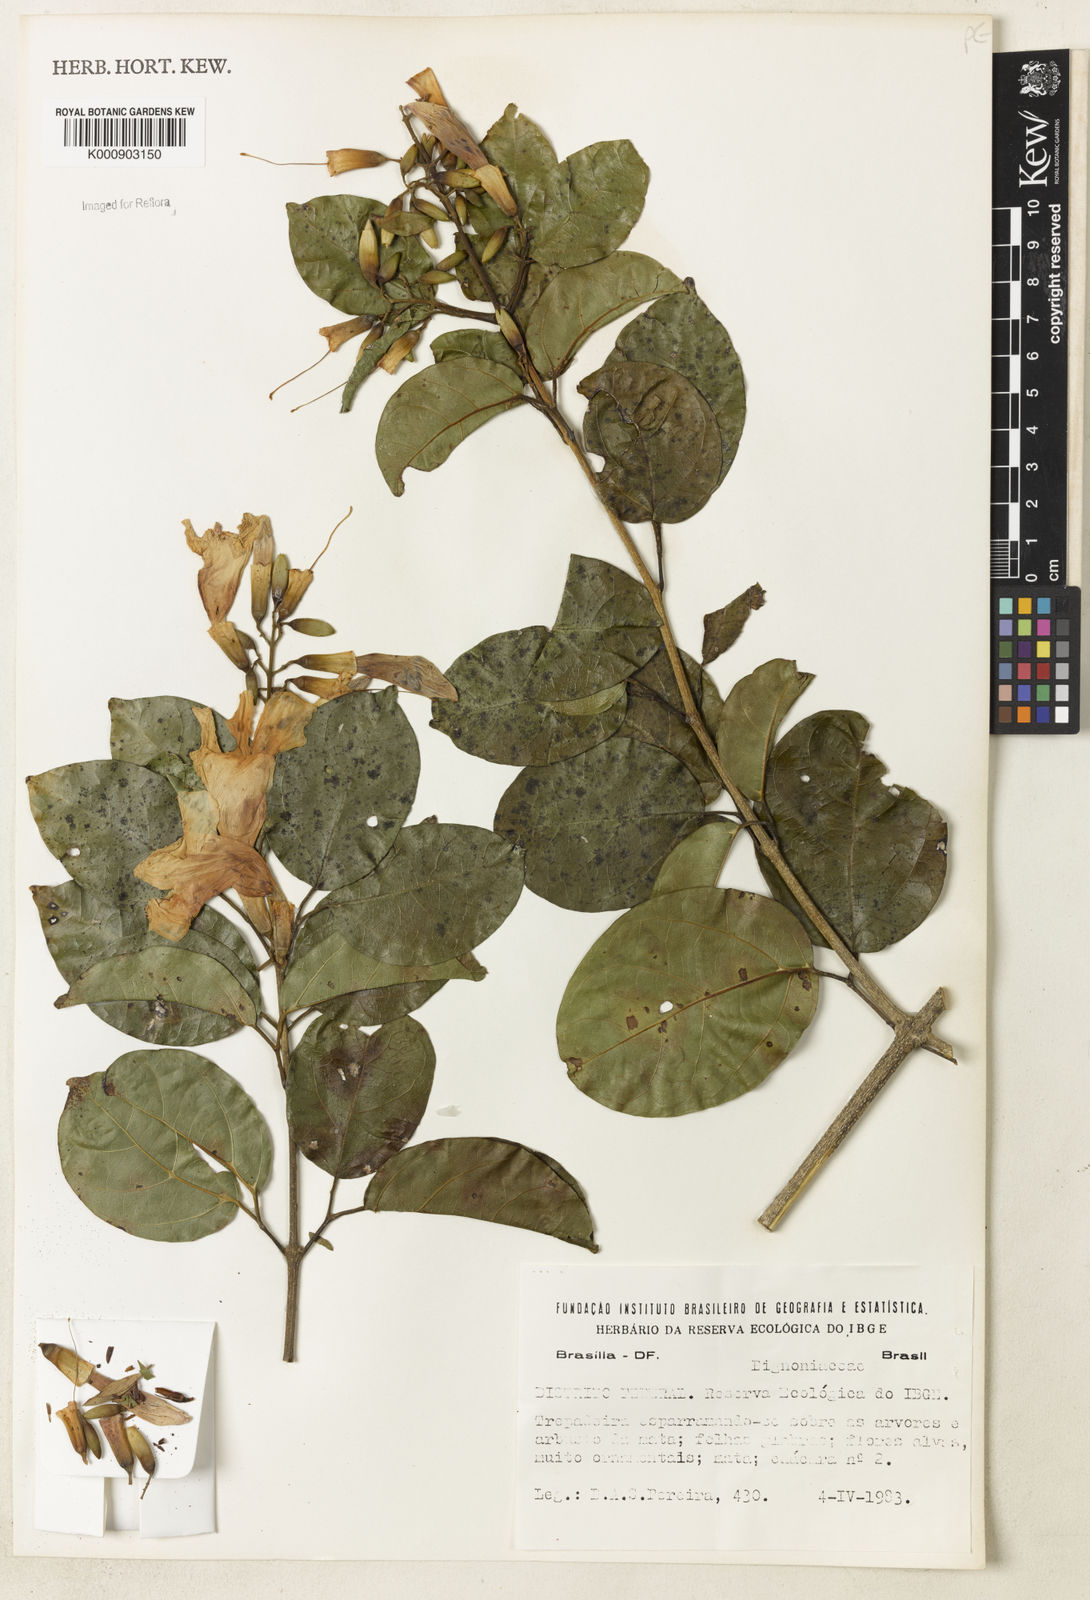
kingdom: Plantae
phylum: Tracheophyta
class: Magnoliopsida
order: Lamiales
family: Bignoniaceae
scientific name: Bignoniaceae
